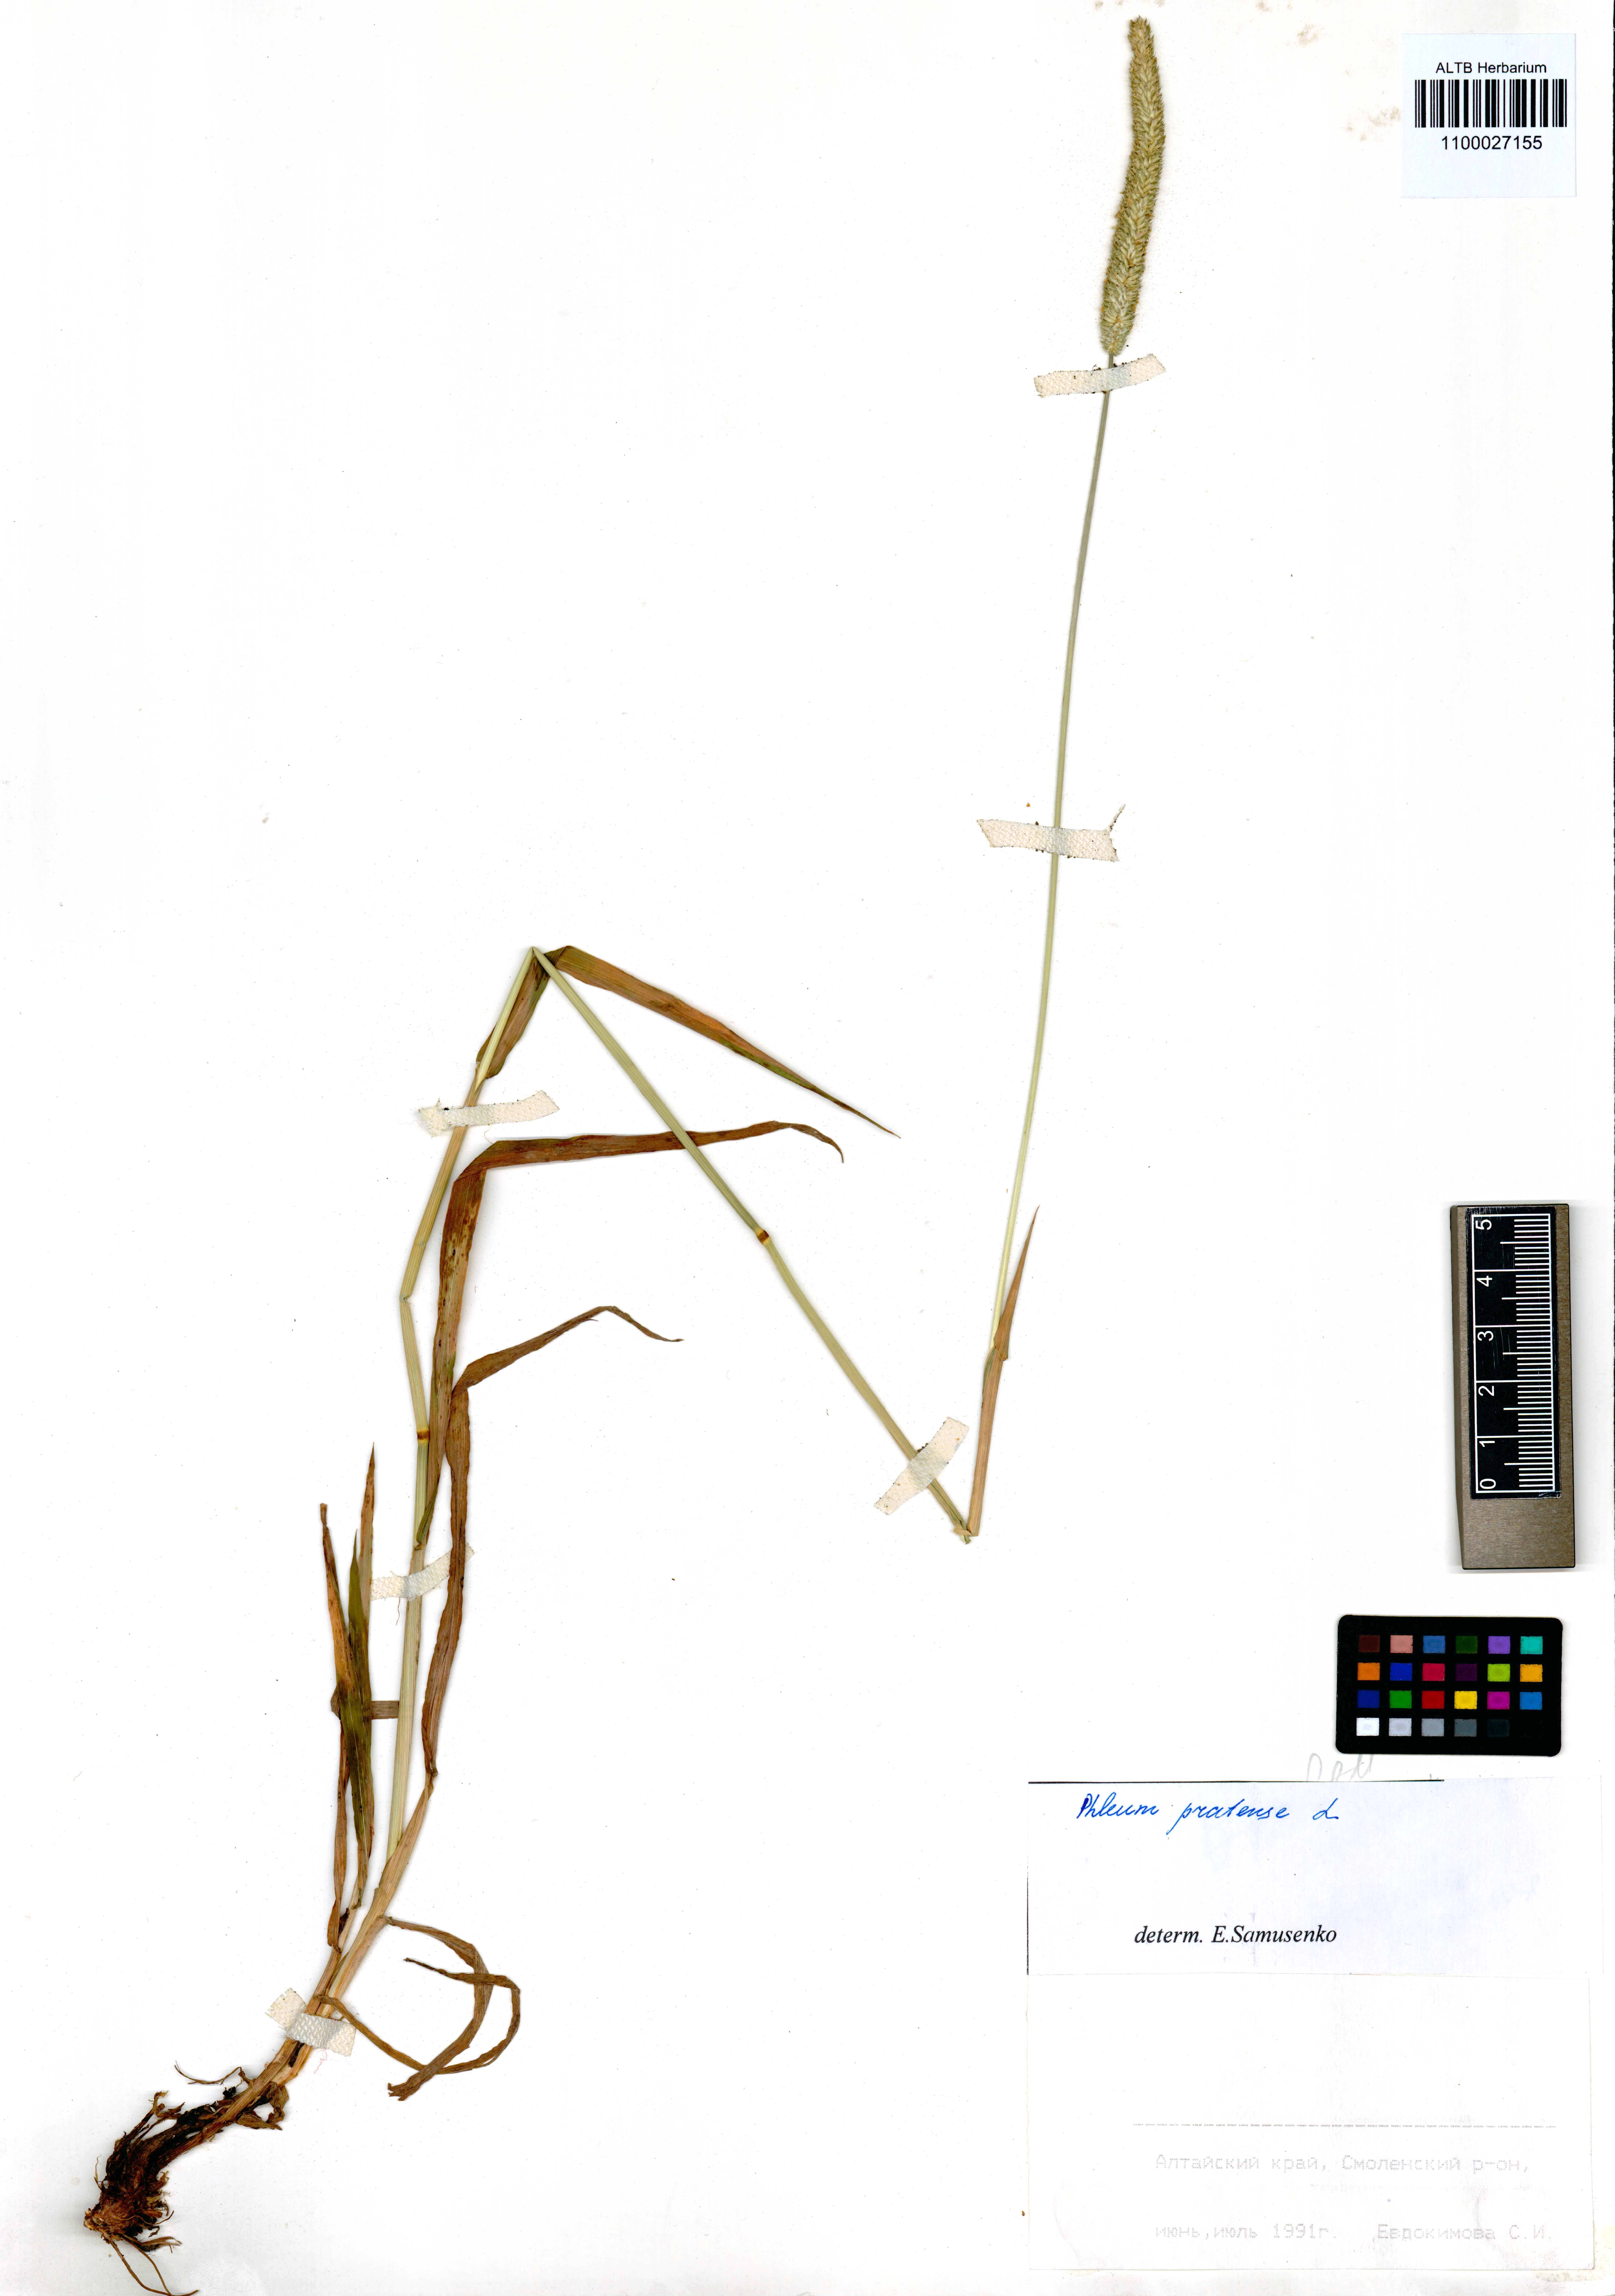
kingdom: Plantae
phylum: Tracheophyta
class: Liliopsida
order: Poales
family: Poaceae
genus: Phleum
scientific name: Phleum pratense
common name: Timothy grass
